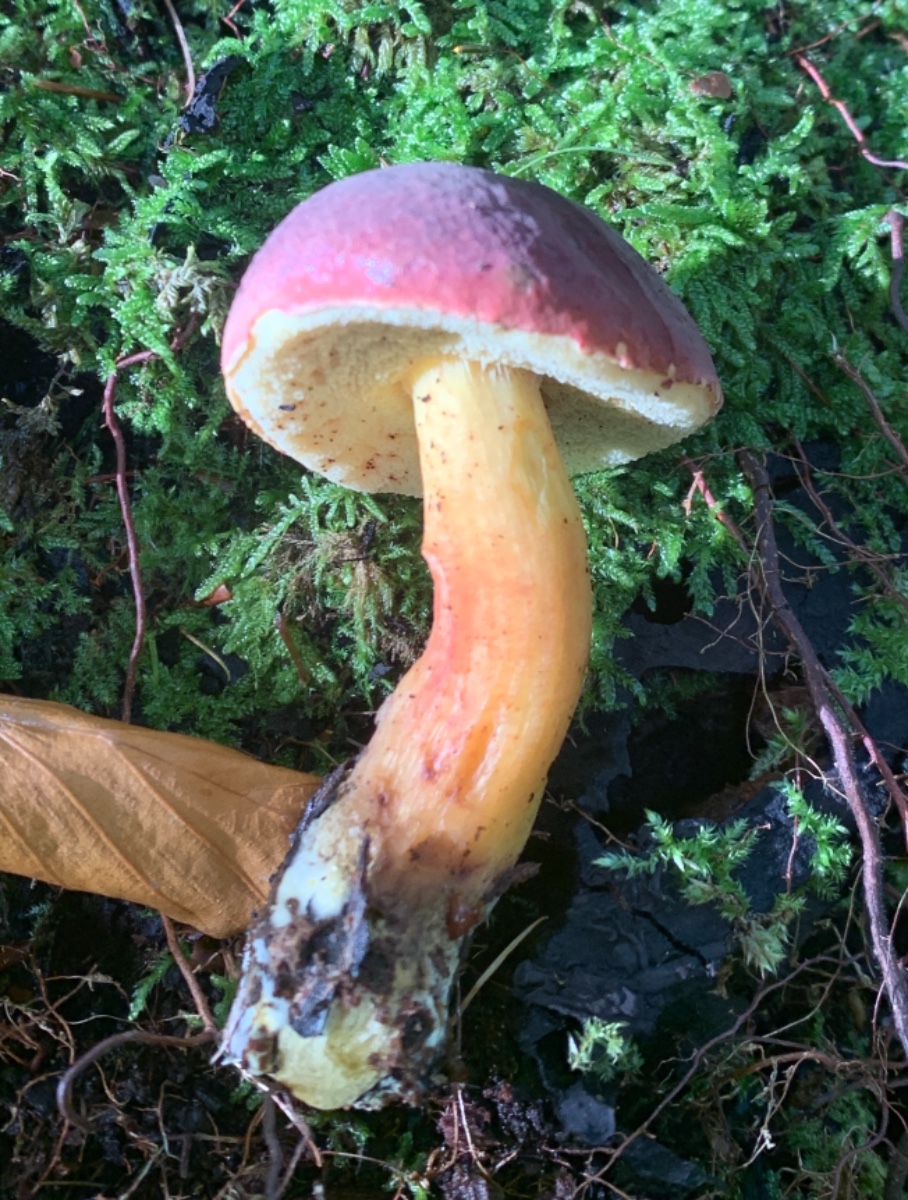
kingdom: Fungi
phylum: Basidiomycota
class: Agaricomycetes
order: Boletales
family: Boletaceae
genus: Xerocomellus
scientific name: Xerocomellus pruinatus
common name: dugget rørhat
